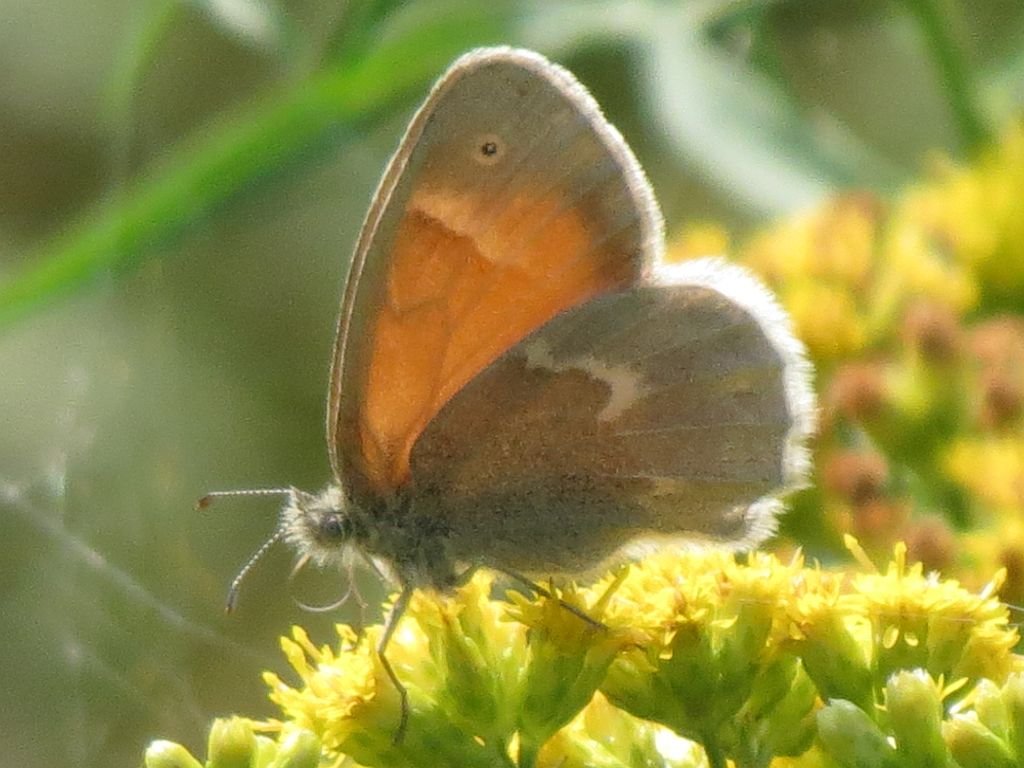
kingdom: Animalia
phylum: Arthropoda
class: Insecta
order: Lepidoptera
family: Nymphalidae
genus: Coenonympha
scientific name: Coenonympha tullia
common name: Large Heath
